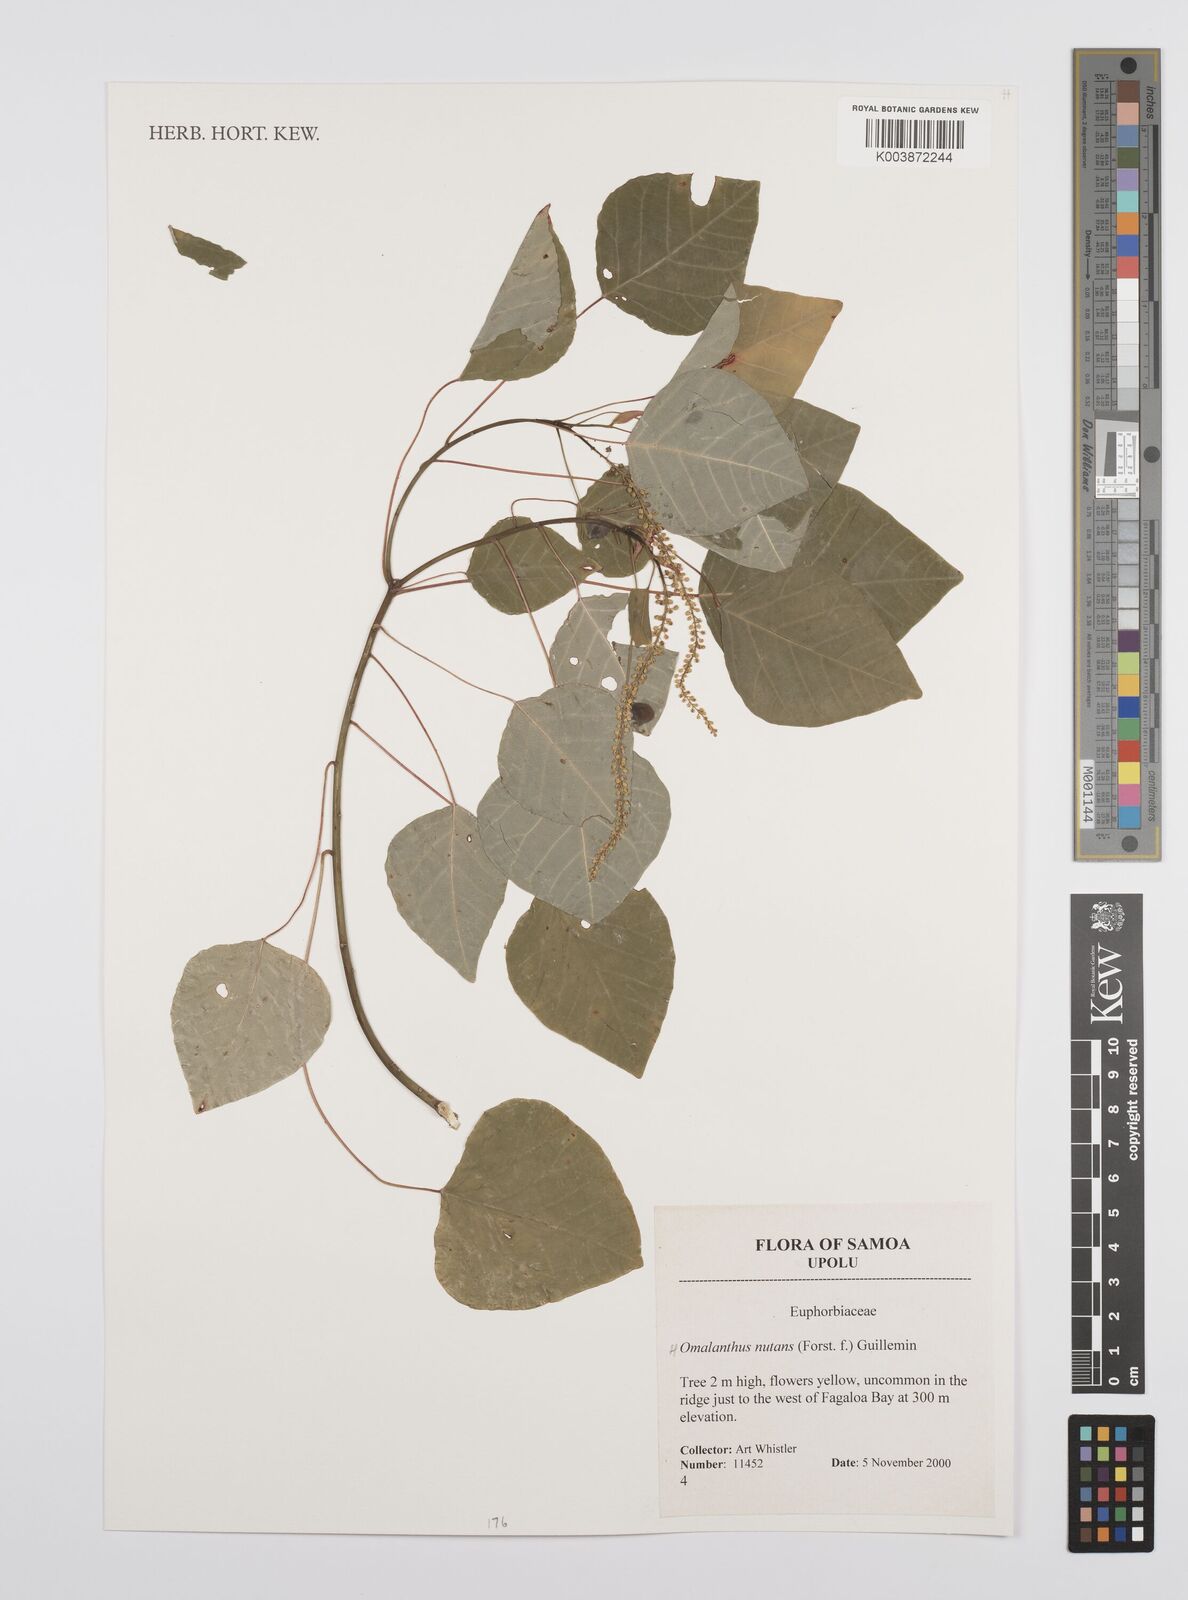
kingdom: Plantae
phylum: Tracheophyta
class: Magnoliopsida
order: Malpighiales
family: Euphorbiaceae
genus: Homalanthus
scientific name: Homalanthus nutans
